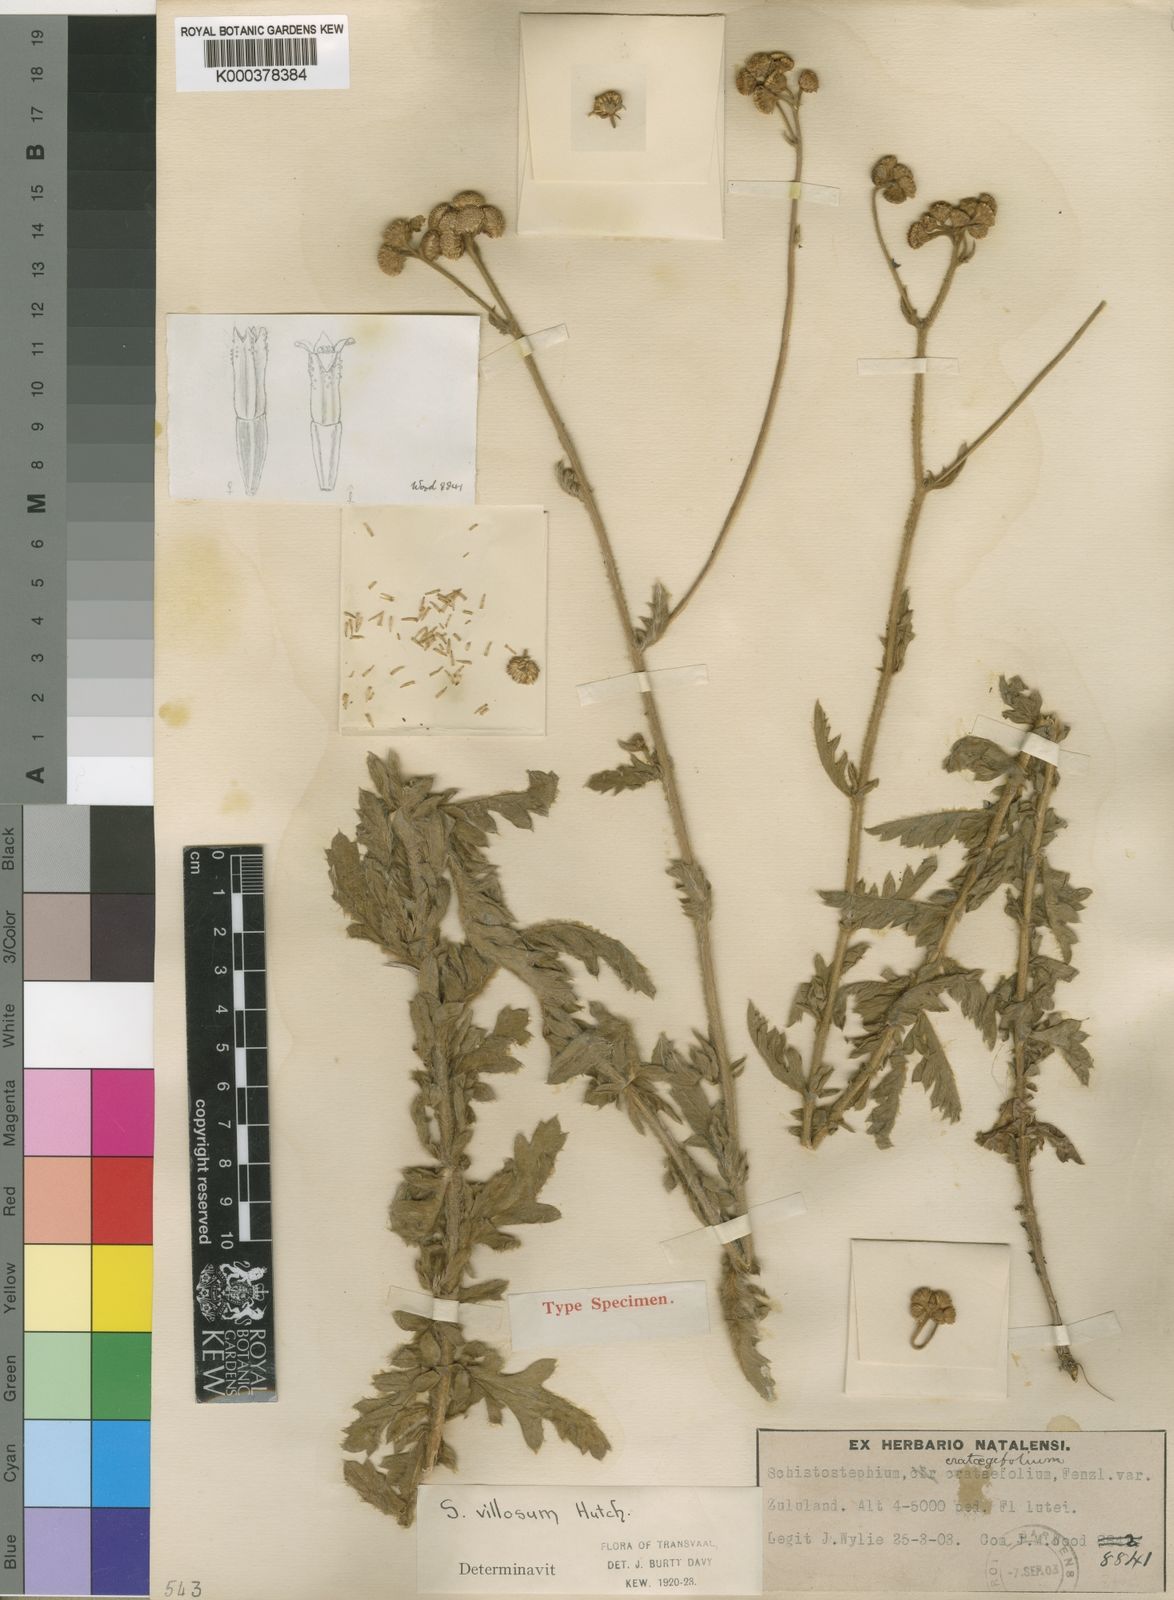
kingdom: Plantae
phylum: Tracheophyta
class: Magnoliopsida
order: Asterales
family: Asteraceae
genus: Schistostephium
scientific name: Schistostephium crataegifolium
